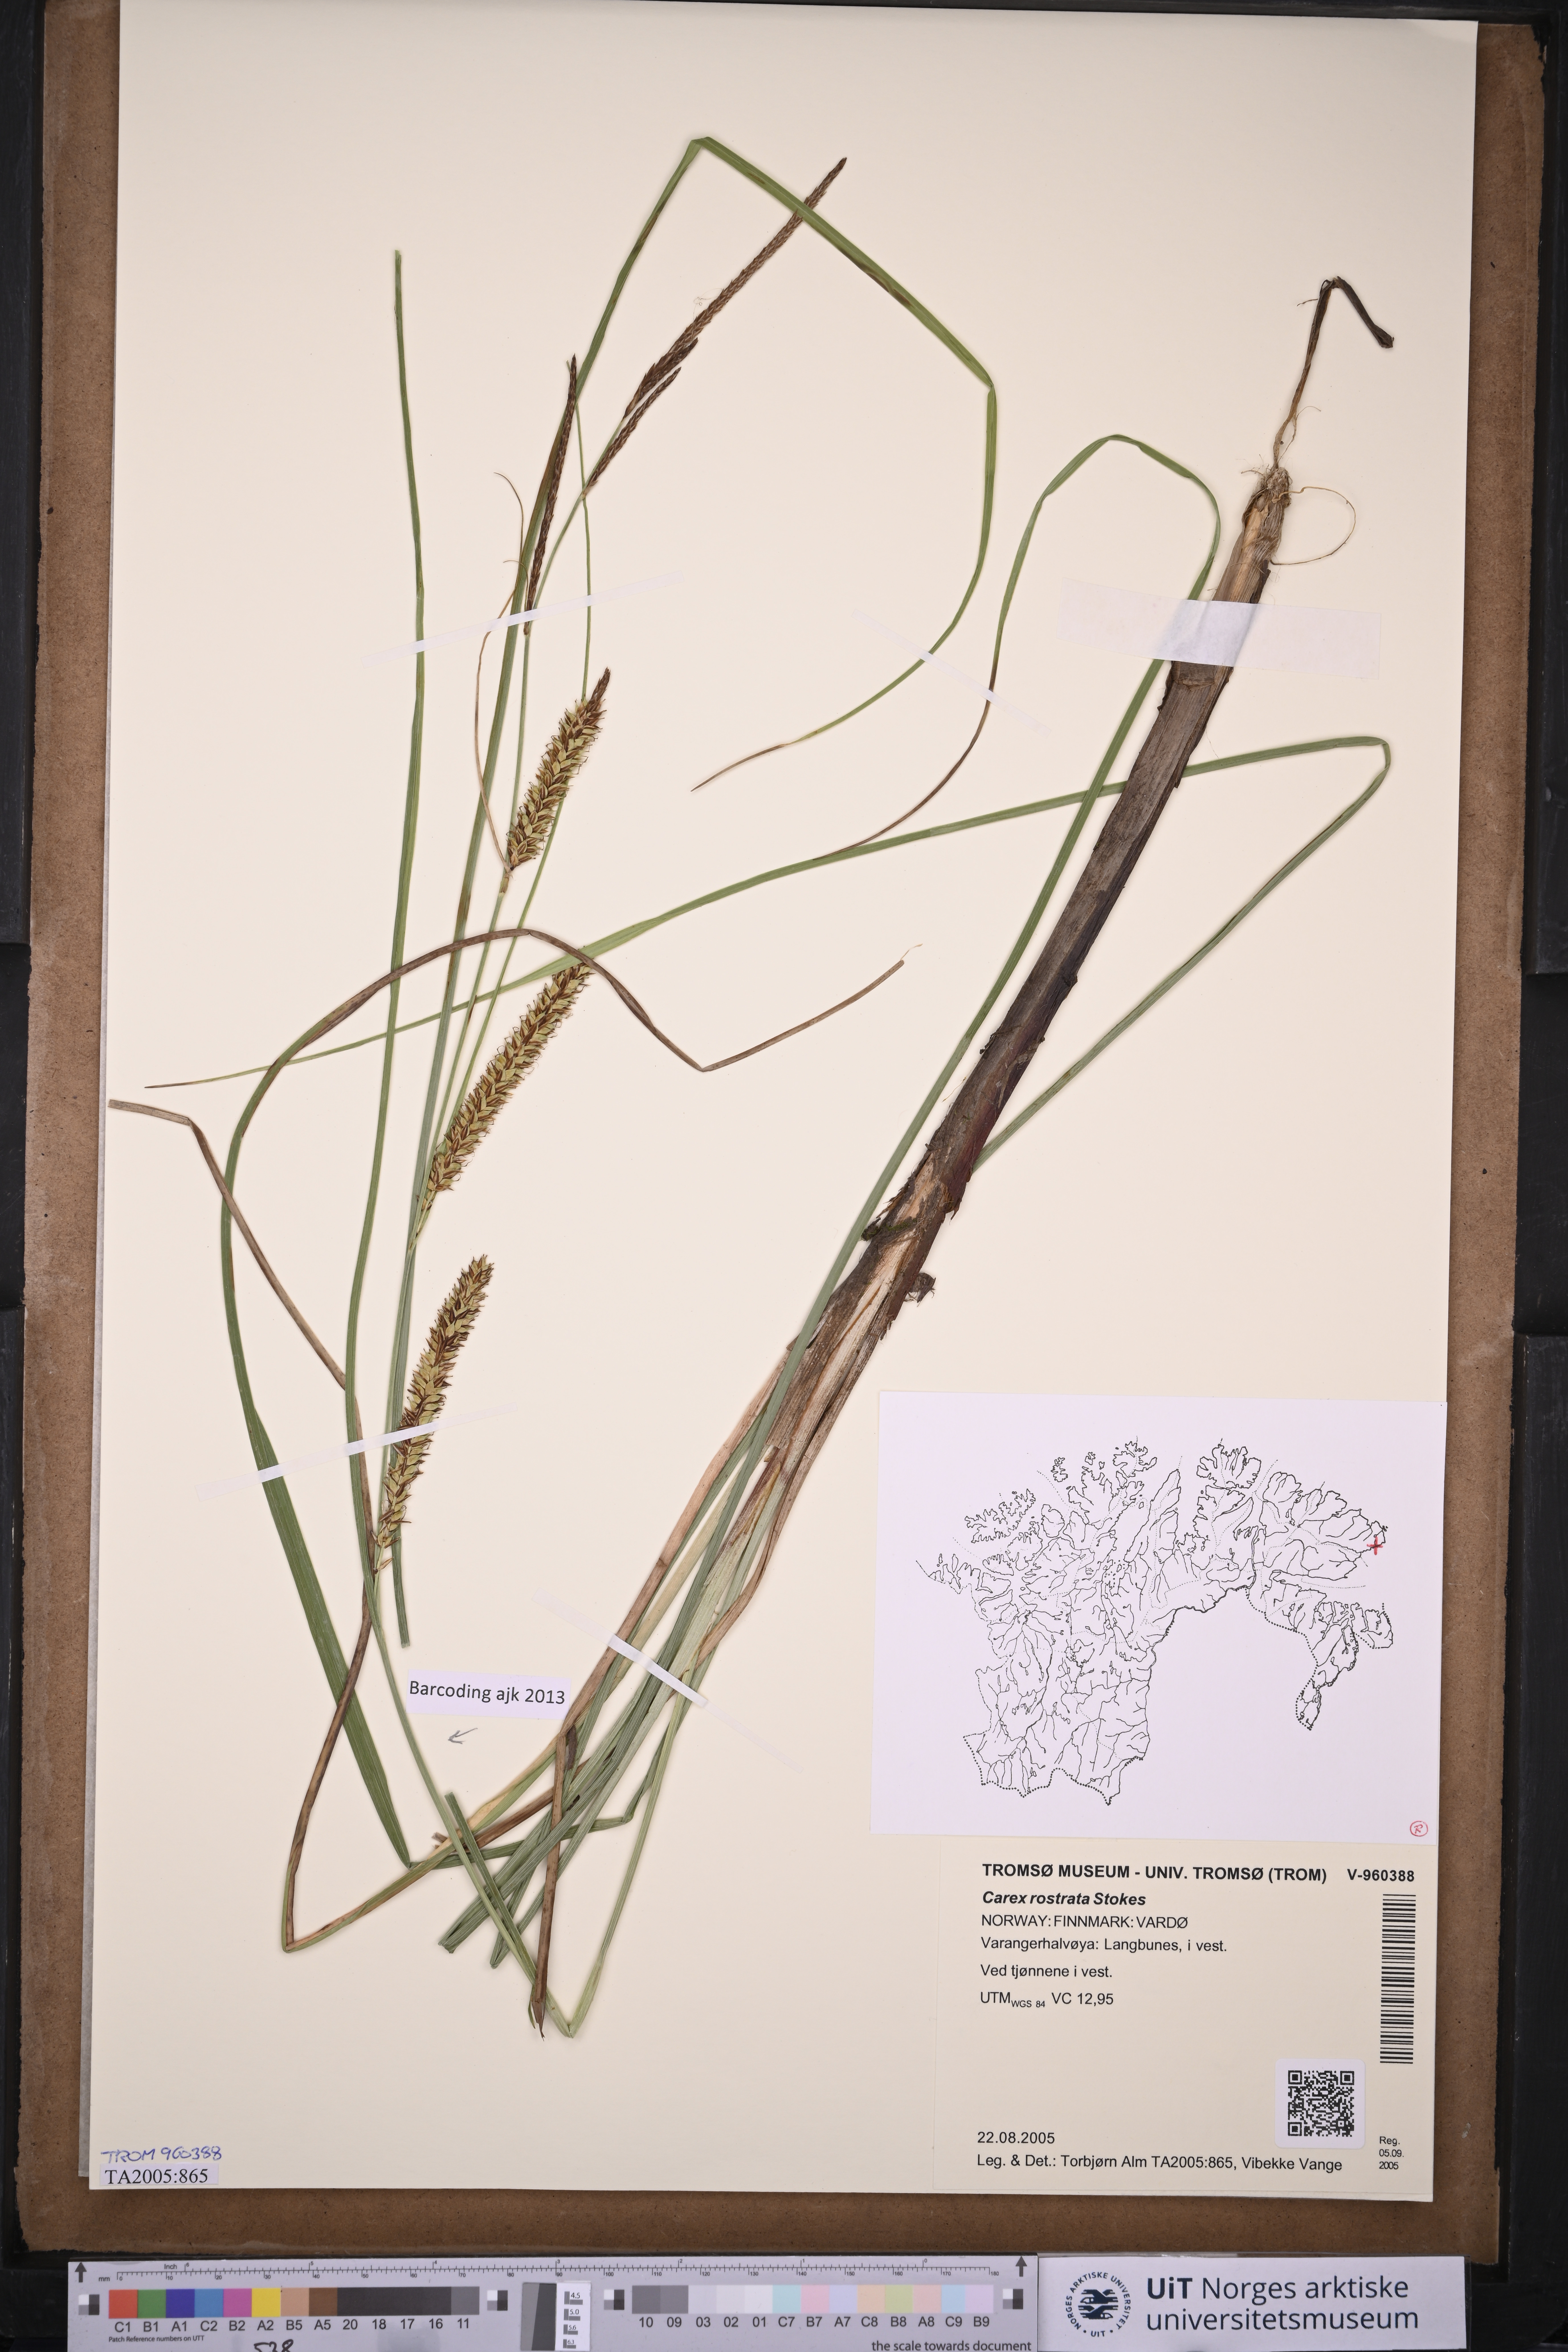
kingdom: Plantae
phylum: Tracheophyta
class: Liliopsida
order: Poales
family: Cyperaceae
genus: Carex
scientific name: Carex rostrata
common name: Bottle sedge
